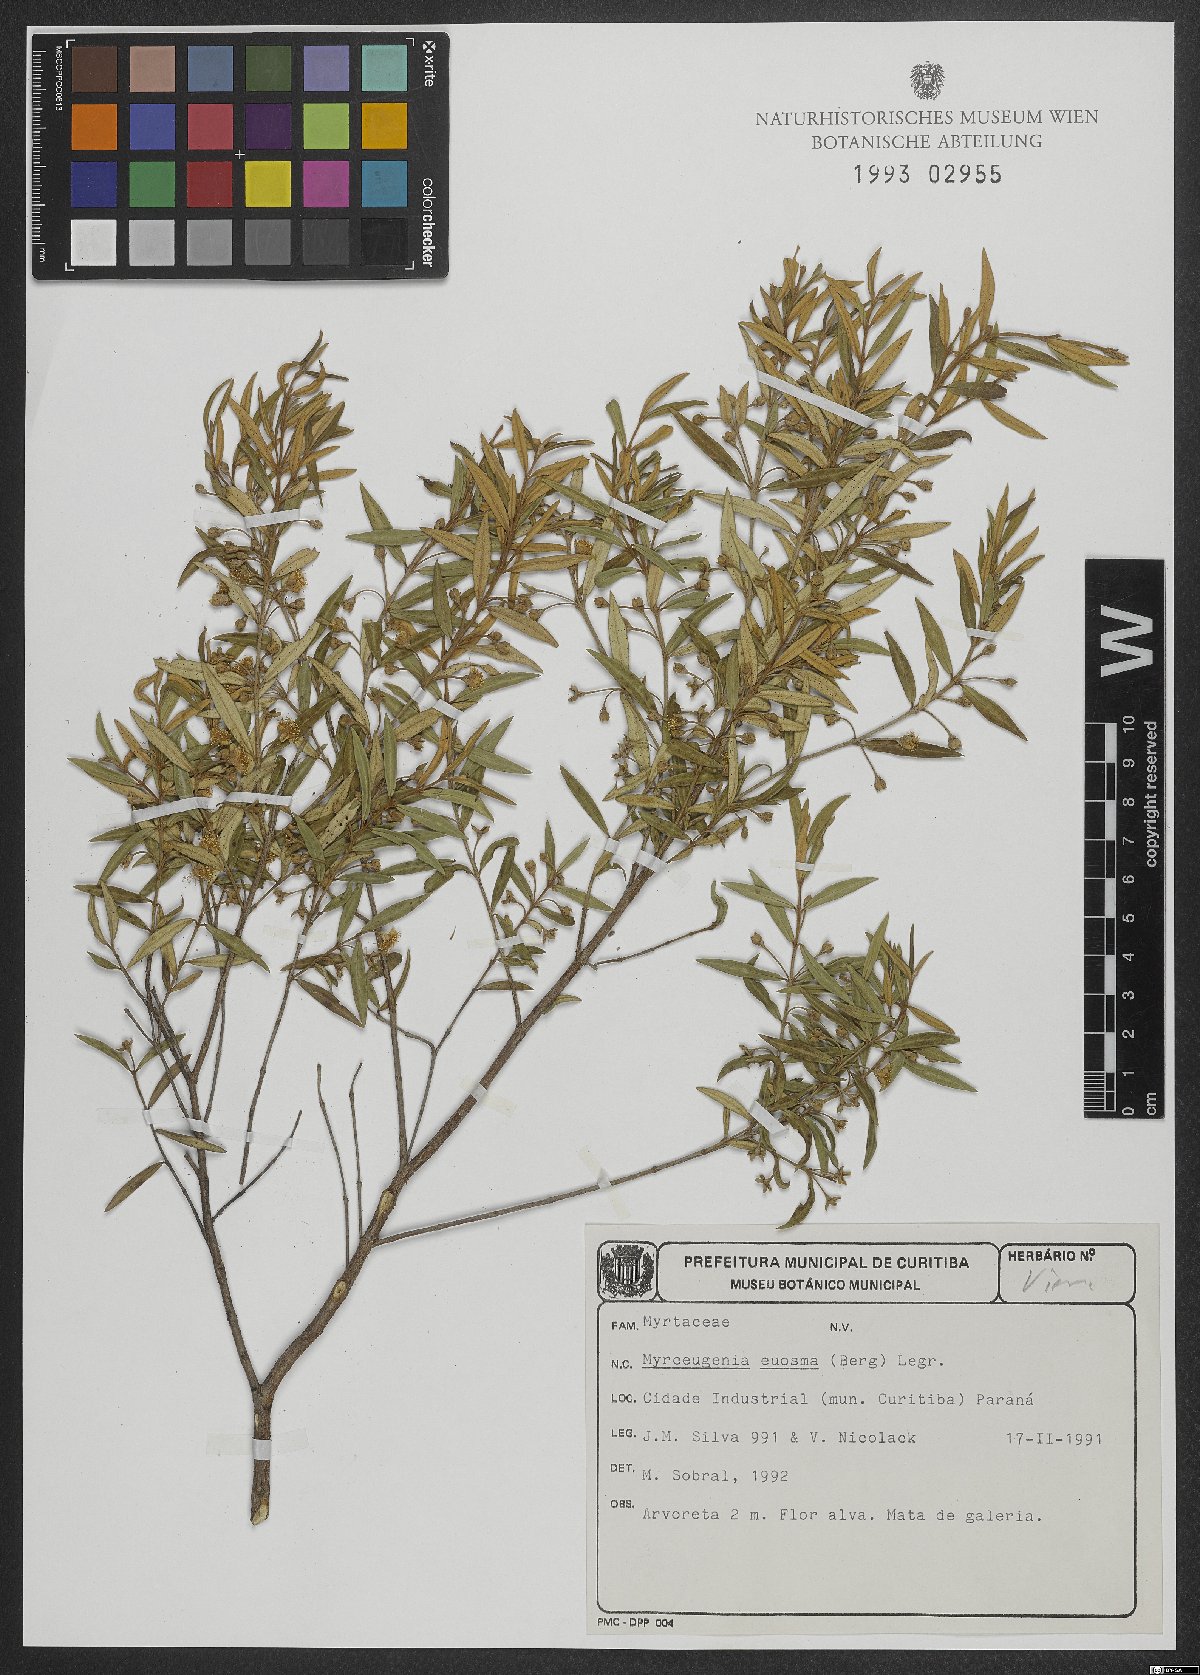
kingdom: Plantae
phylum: Tracheophyta
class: Magnoliopsida
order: Myrtales
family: Myrtaceae
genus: Myrceugenia
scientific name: Myrceugenia euosma
